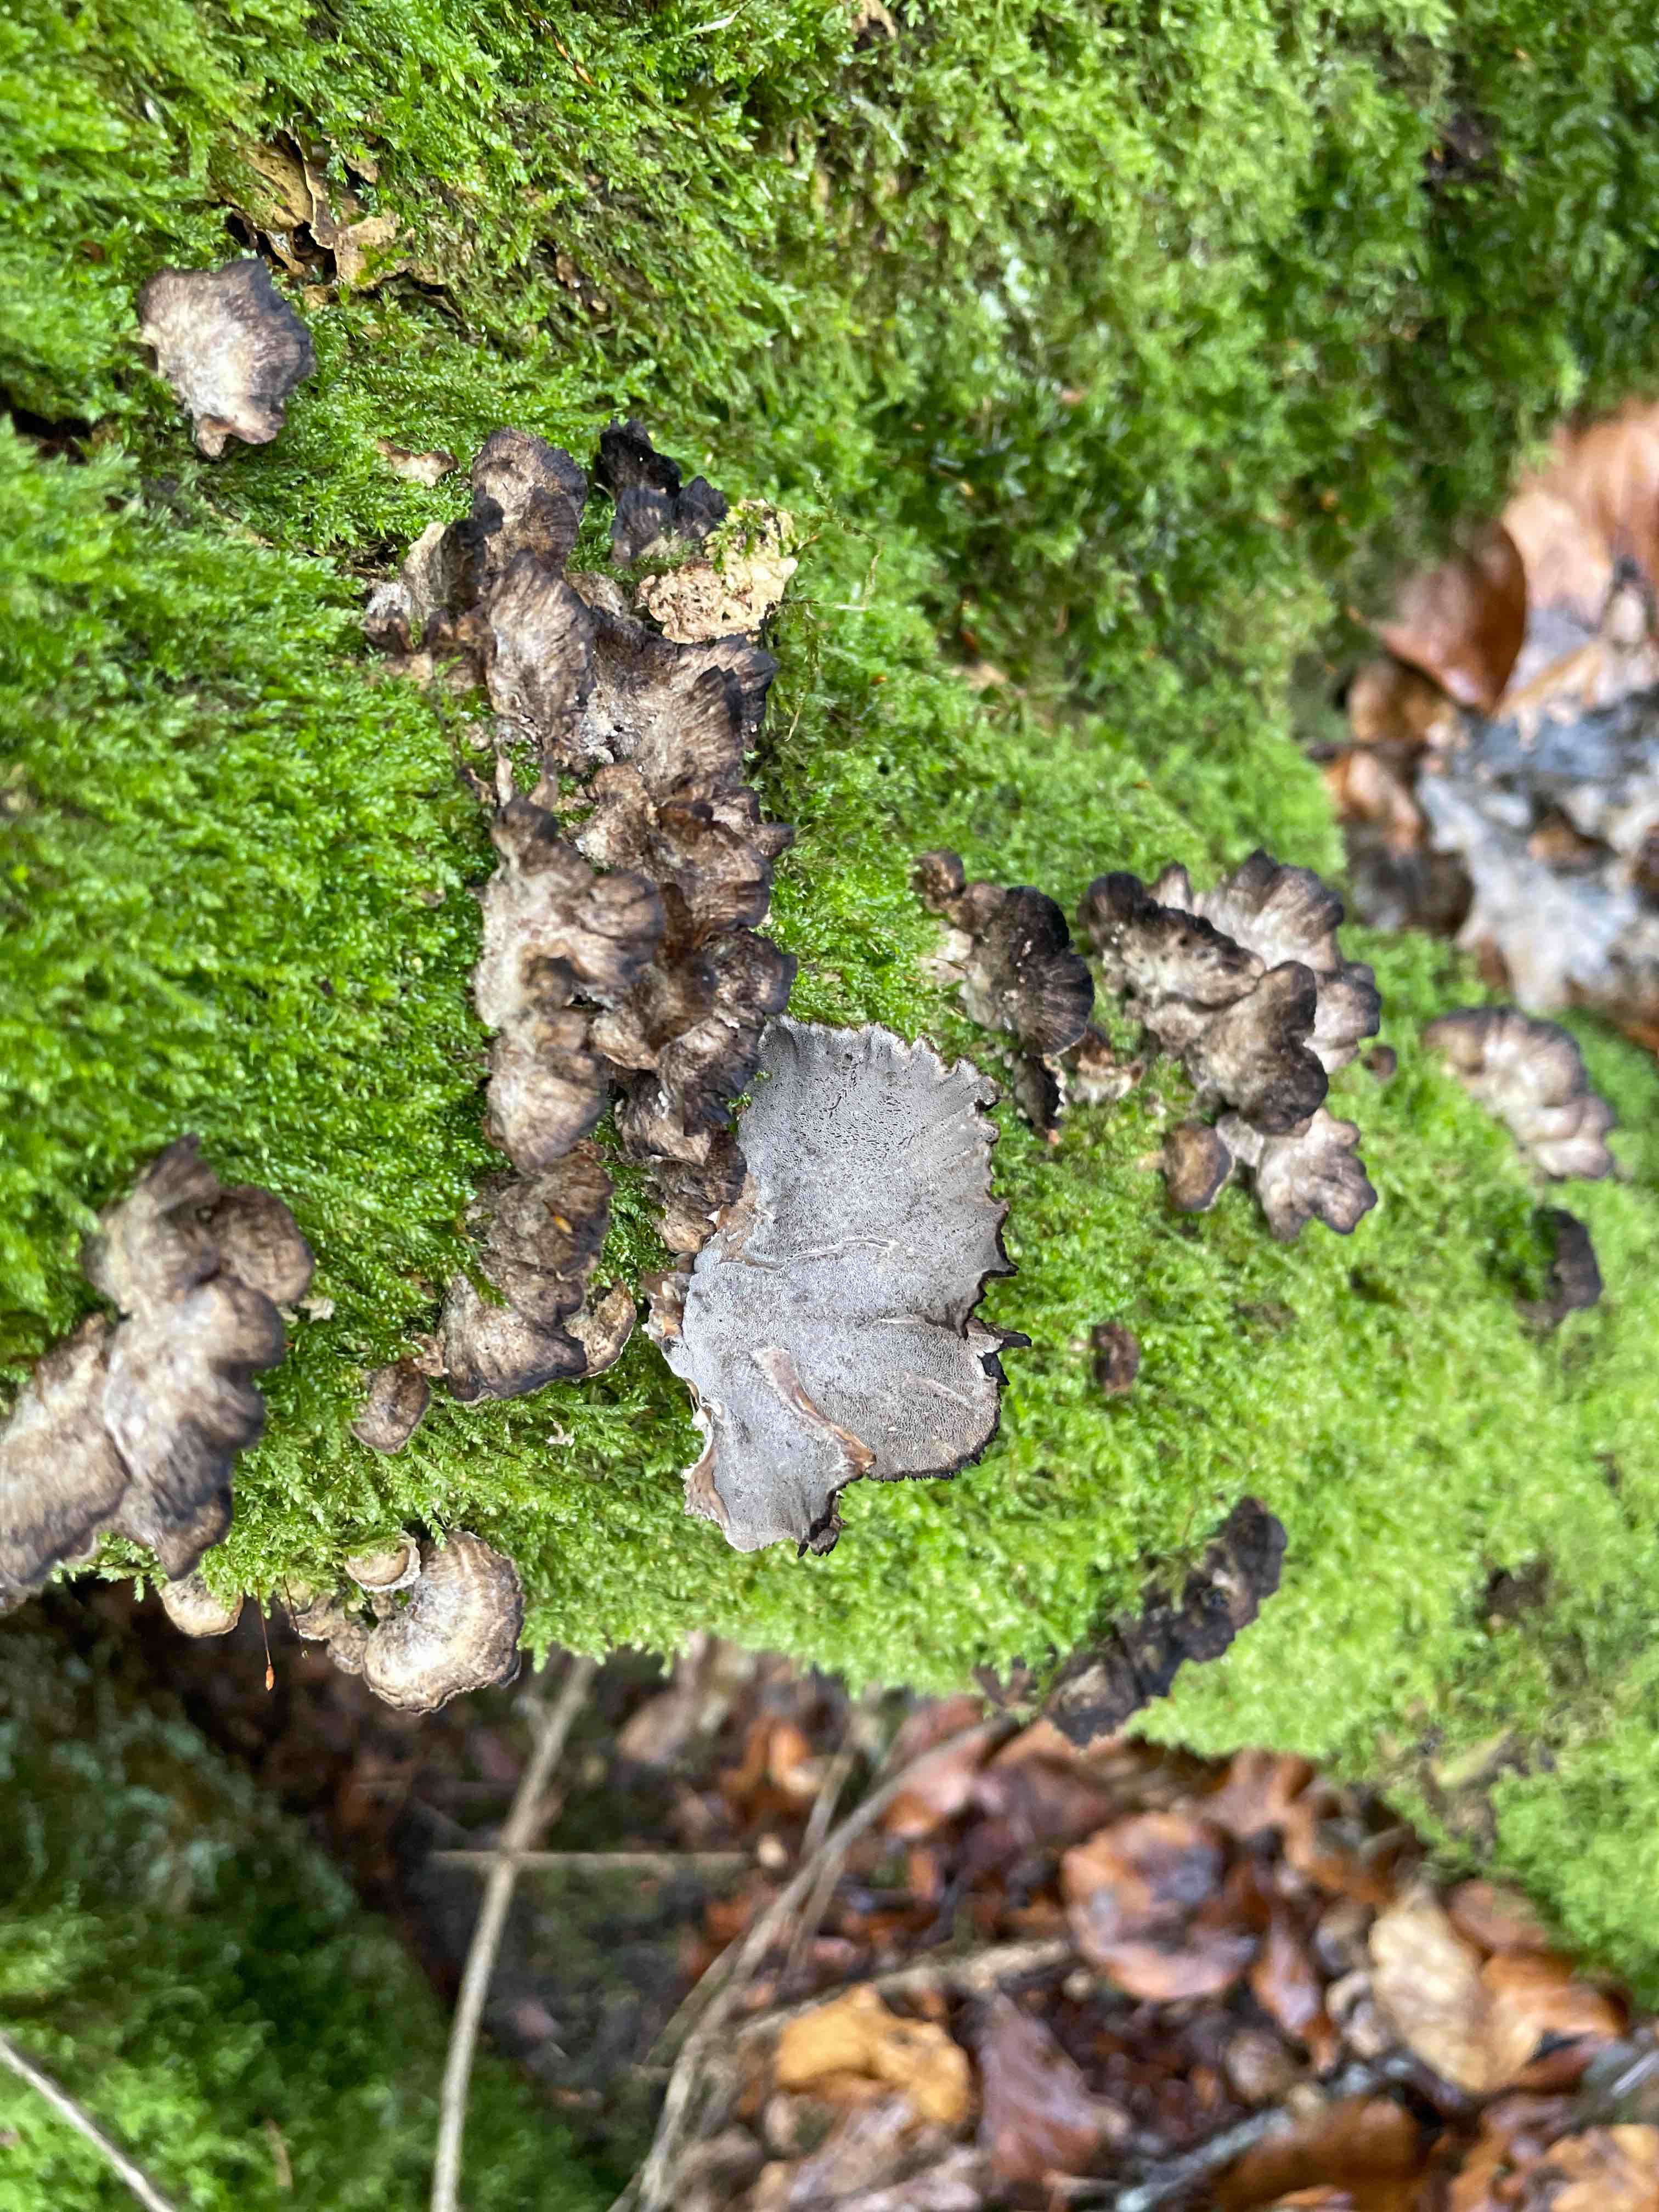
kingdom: Fungi
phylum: Basidiomycota
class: Agaricomycetes
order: Polyporales
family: Phanerochaetaceae
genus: Bjerkandera
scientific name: Bjerkandera adusta
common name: sveden sodporesvamp
